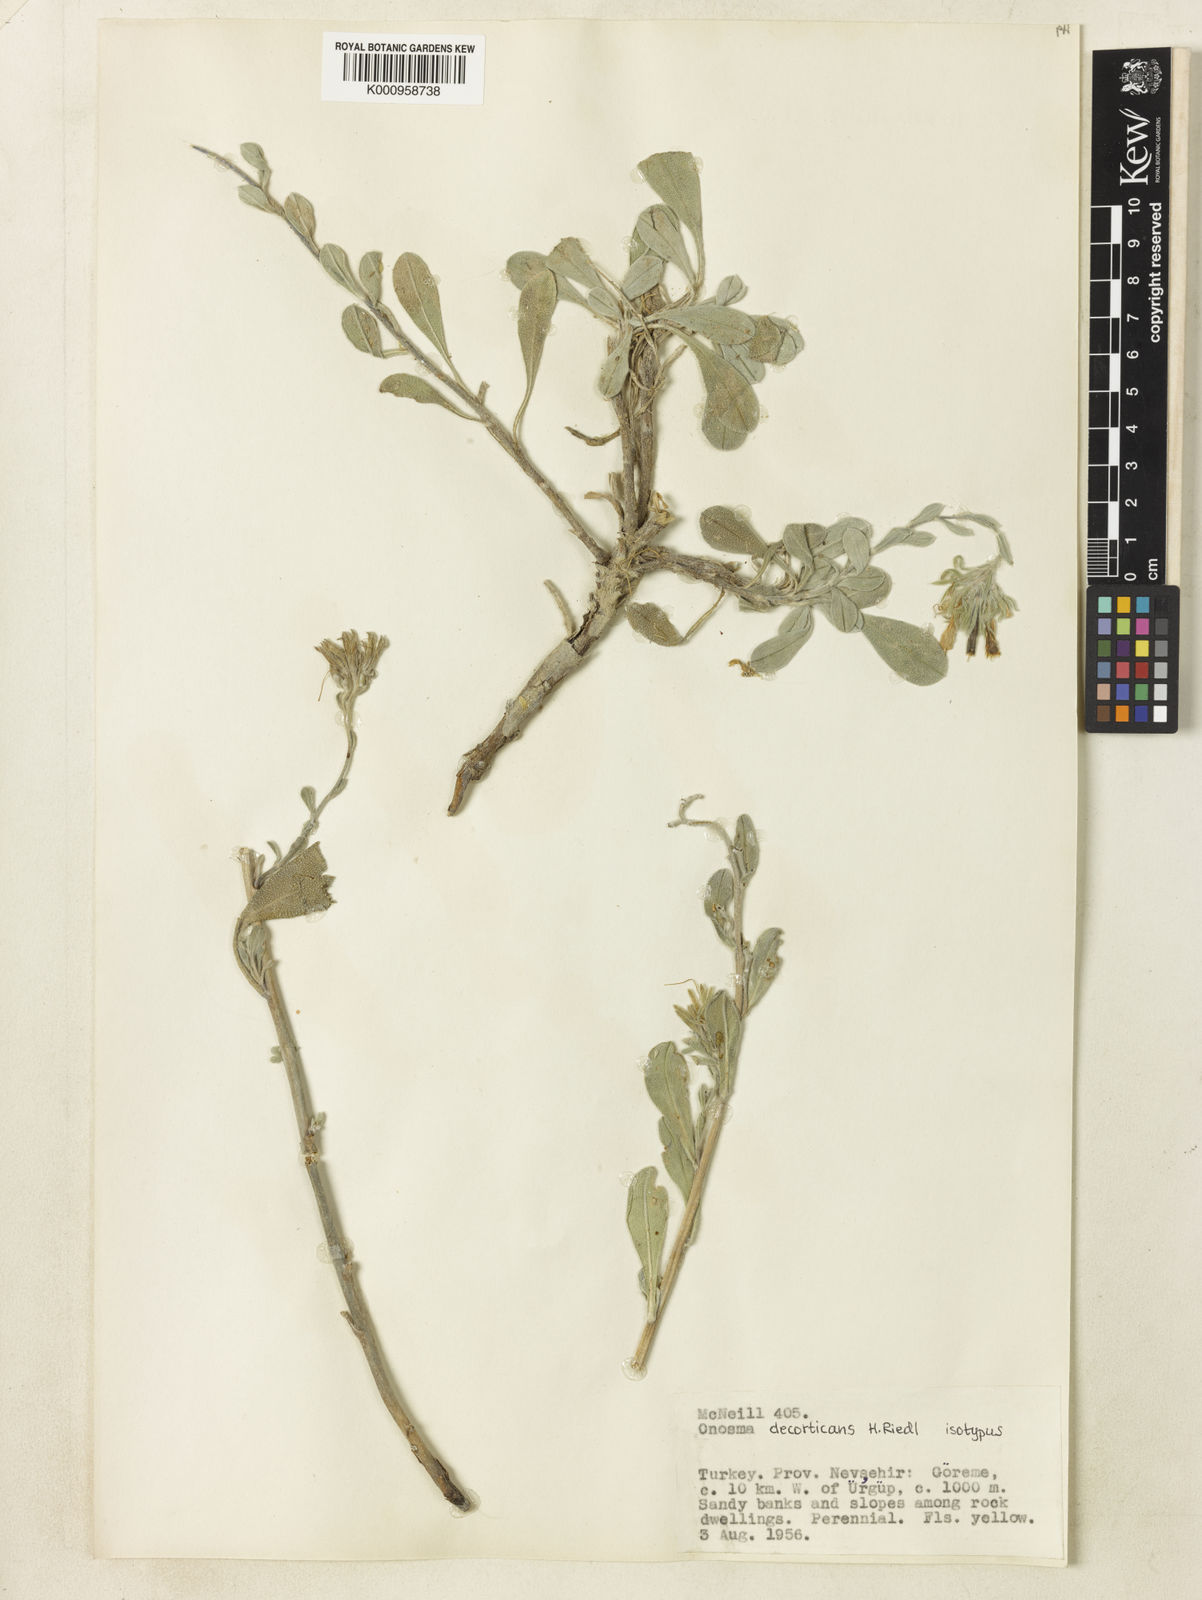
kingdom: Plantae
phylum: Tracheophyta
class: Magnoliopsida
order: Boraginales
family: Boraginaceae
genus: Onosma
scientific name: Onosma decorticans
